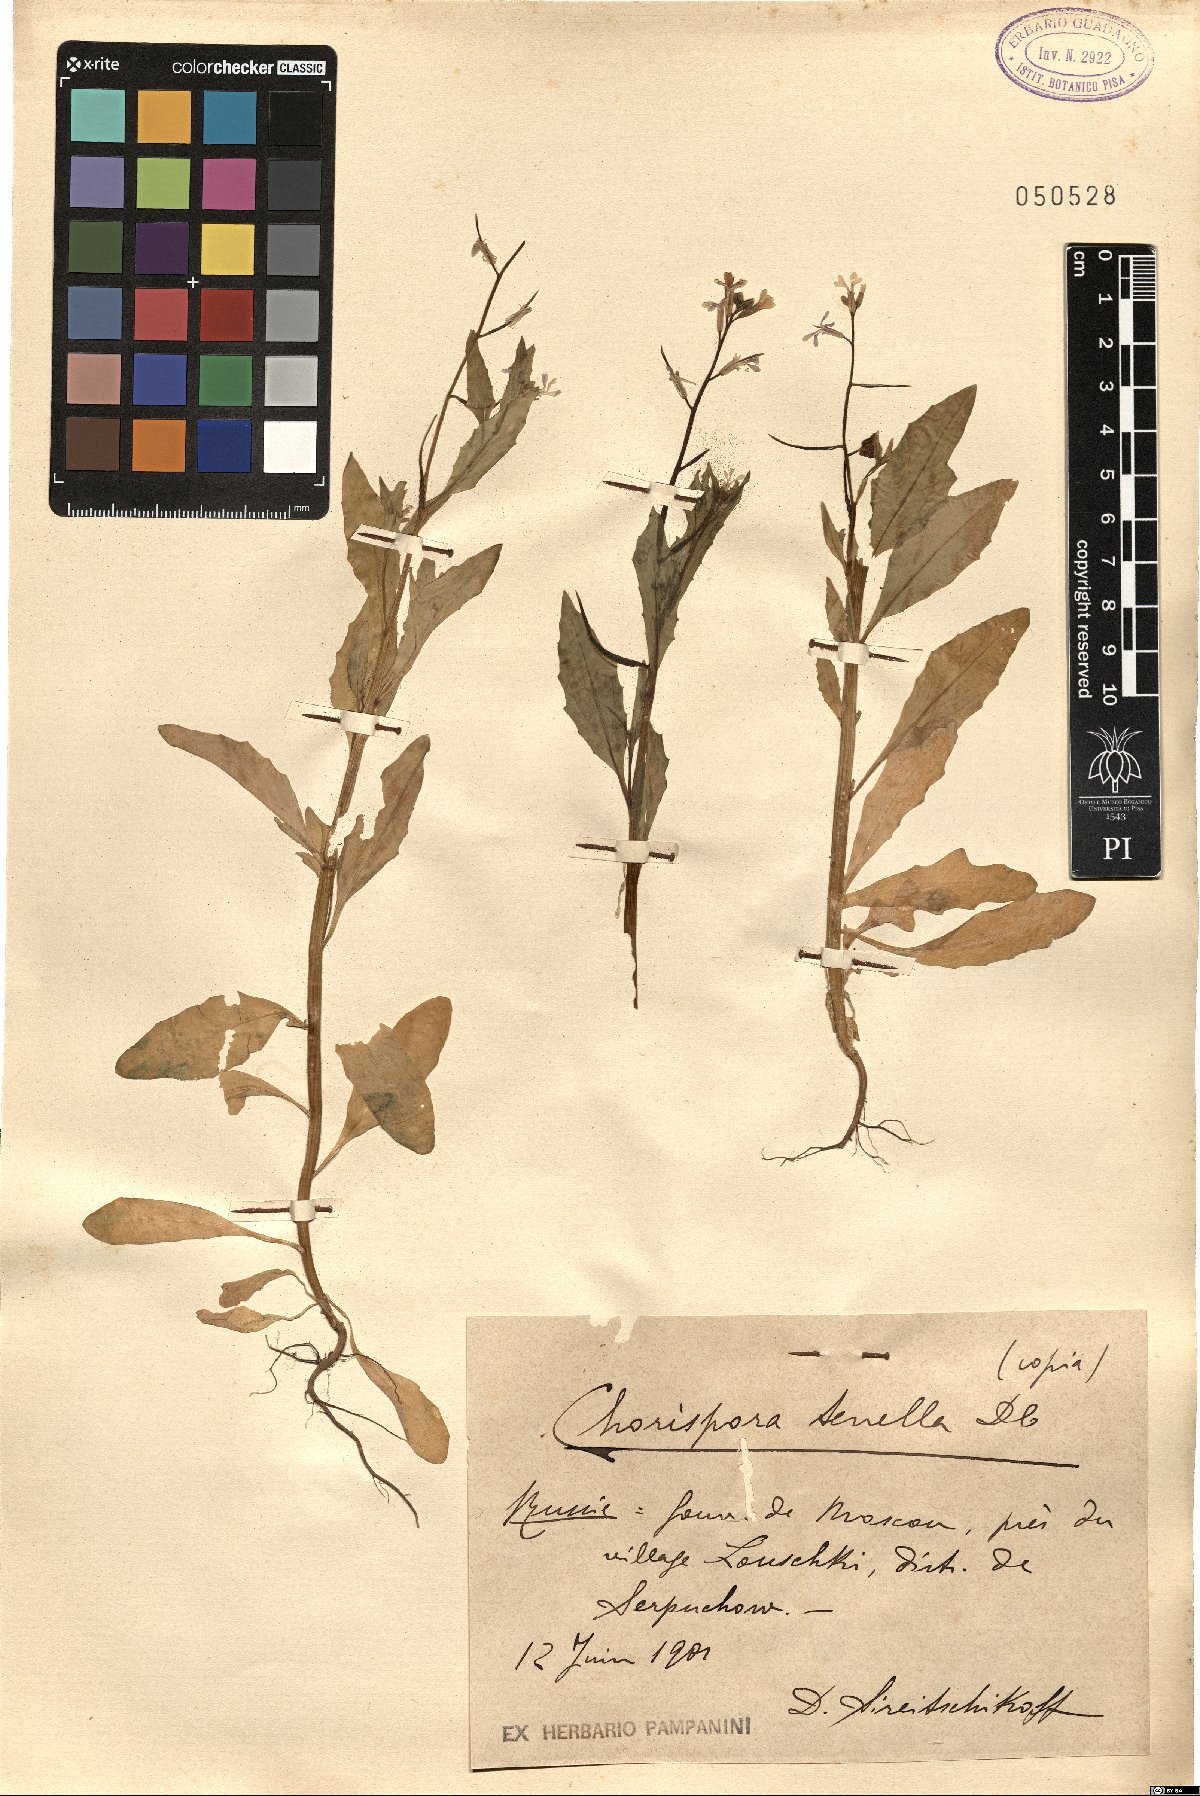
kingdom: Plantae
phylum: Tracheophyta
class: Magnoliopsida
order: Brassicales
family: Brassicaceae
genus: Chorispora
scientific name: Chorispora tenella
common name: Crossflower
